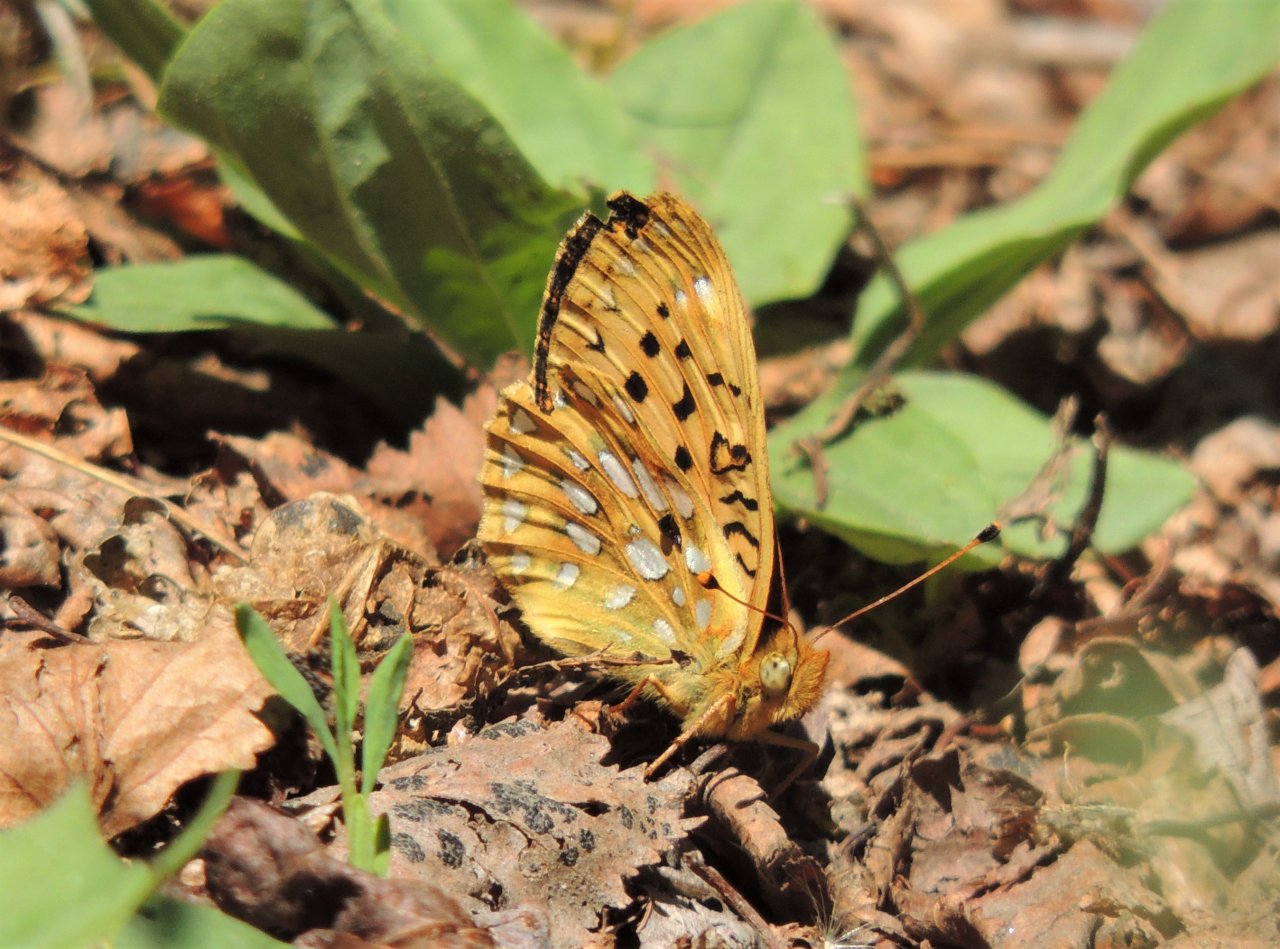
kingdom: Animalia
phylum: Arthropoda
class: Insecta
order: Lepidoptera
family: Nymphalidae
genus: Speyeria
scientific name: Speyeria mormonia
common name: Mormon Fritillary
